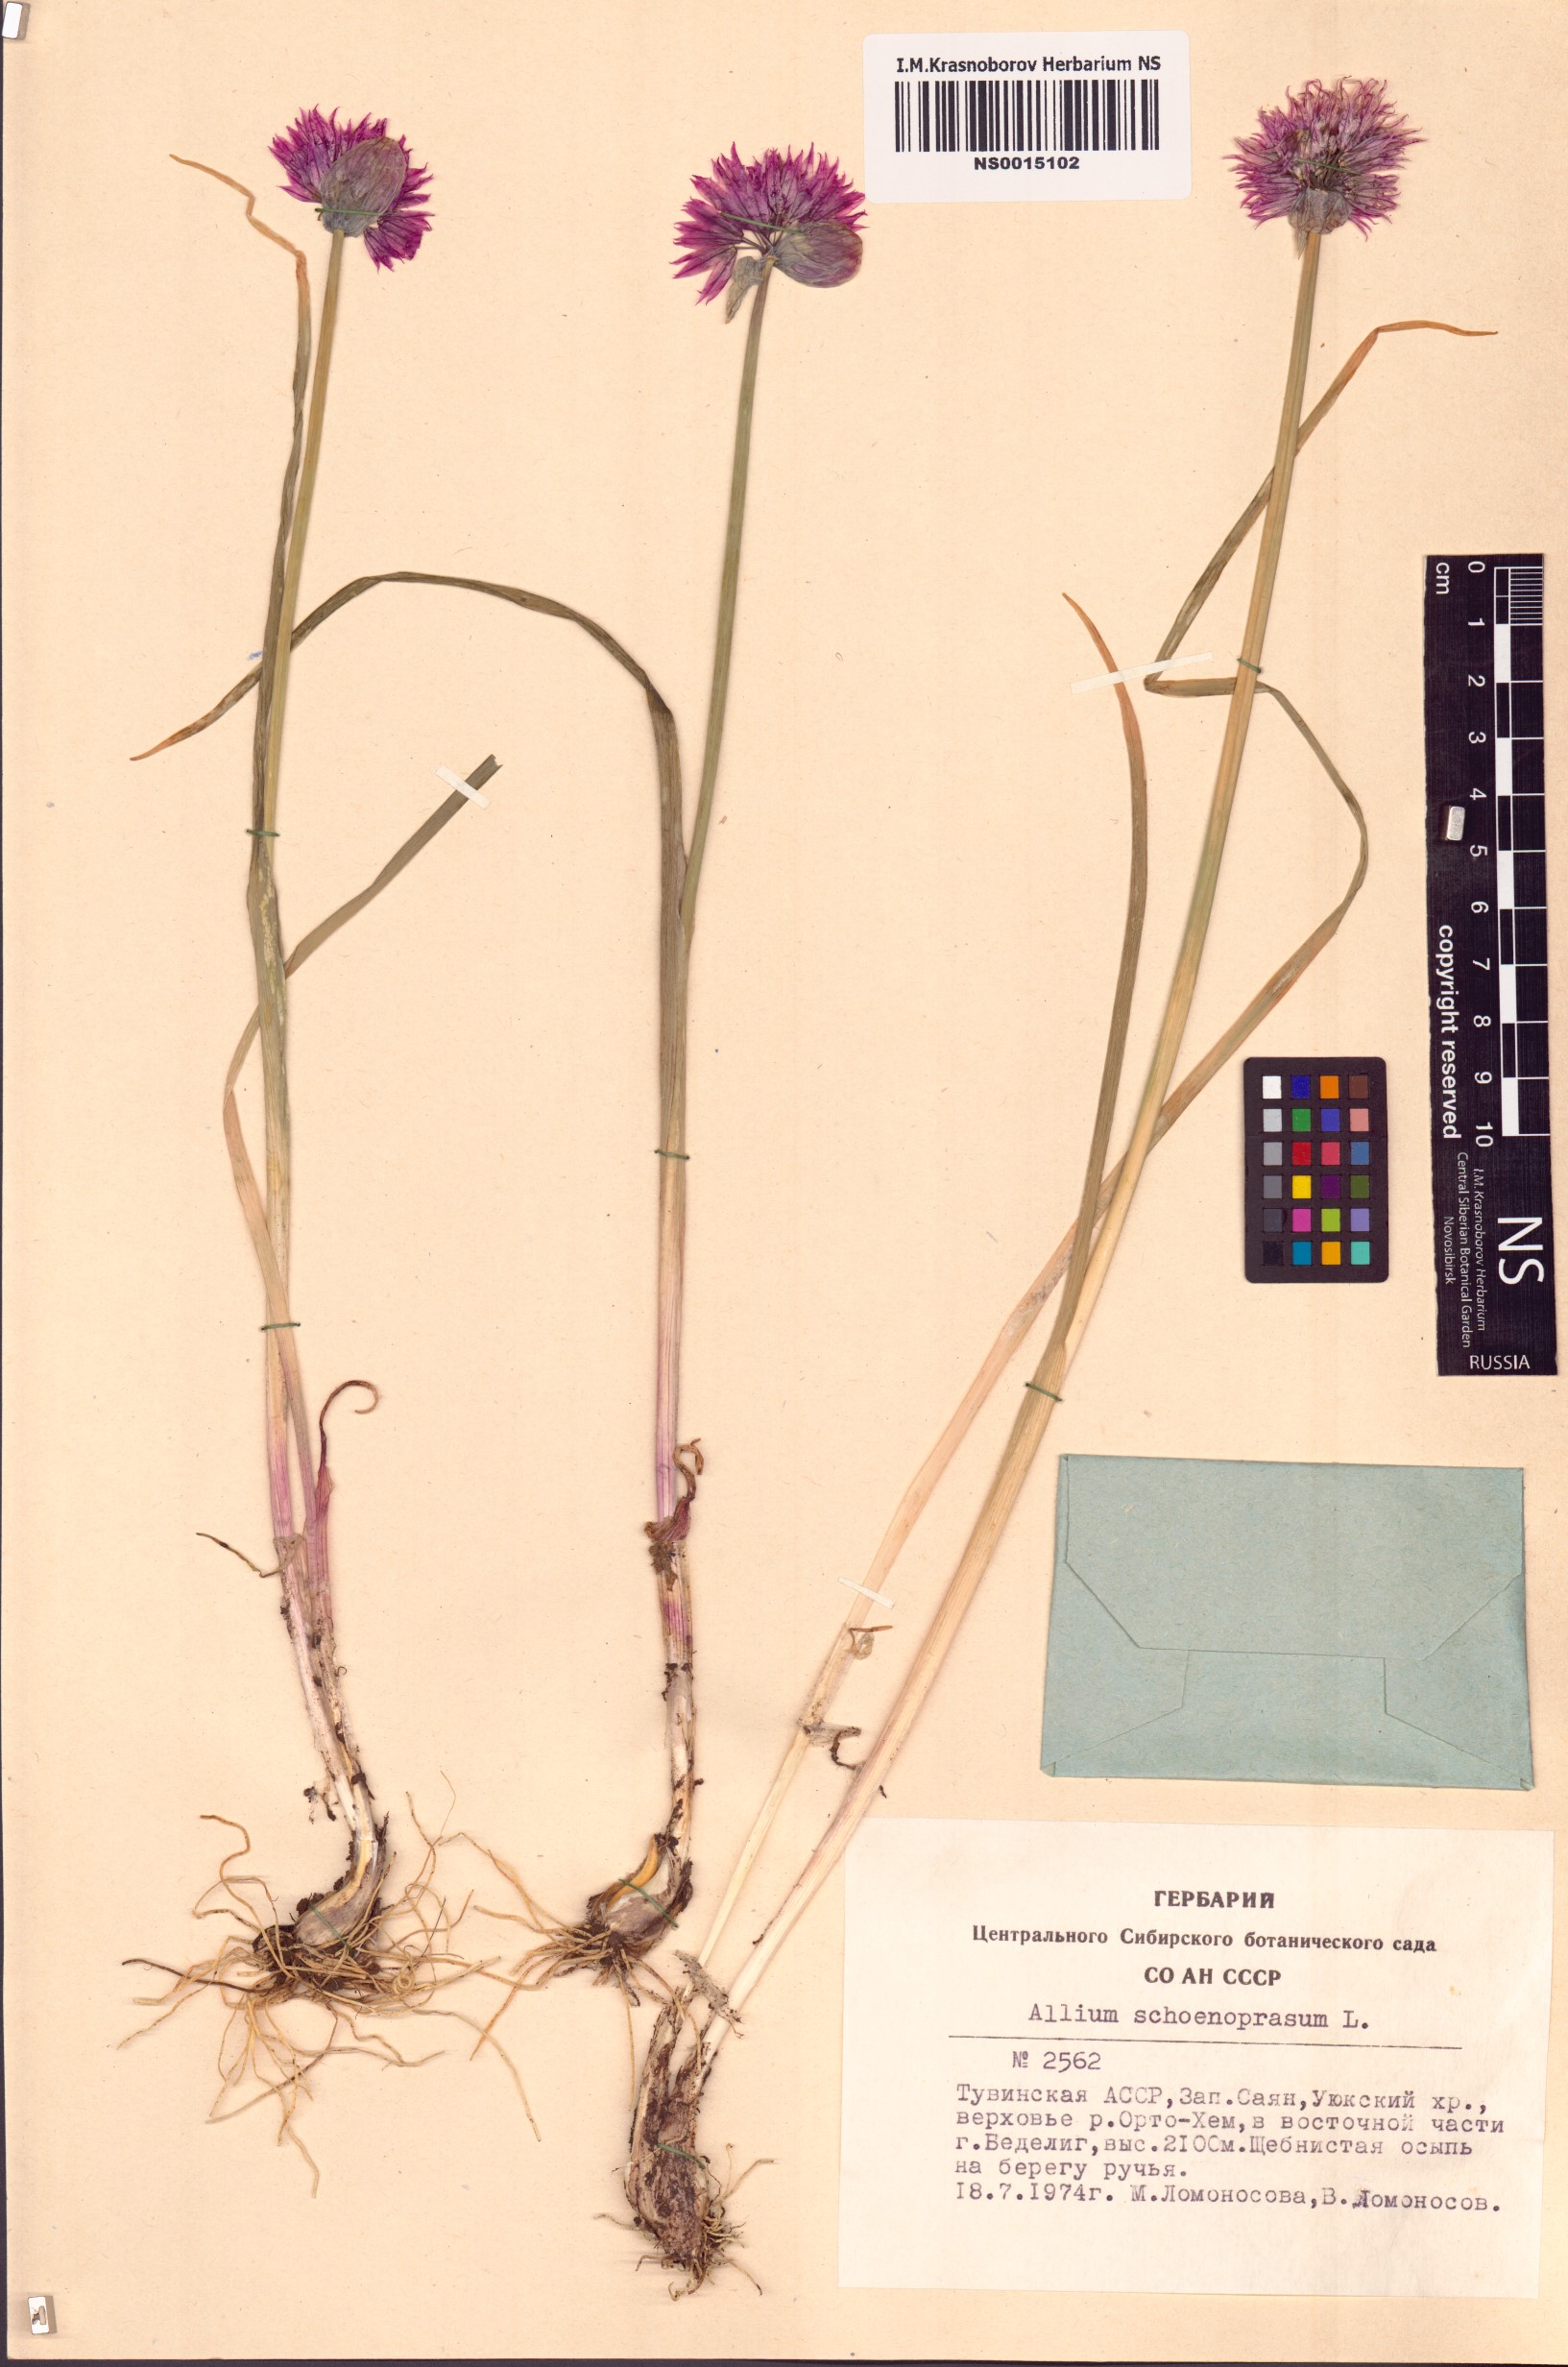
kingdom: Plantae
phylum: Tracheophyta
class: Liliopsida
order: Asparagales
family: Amaryllidaceae
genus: Allium
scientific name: Allium schoenoprasum
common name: Chives
